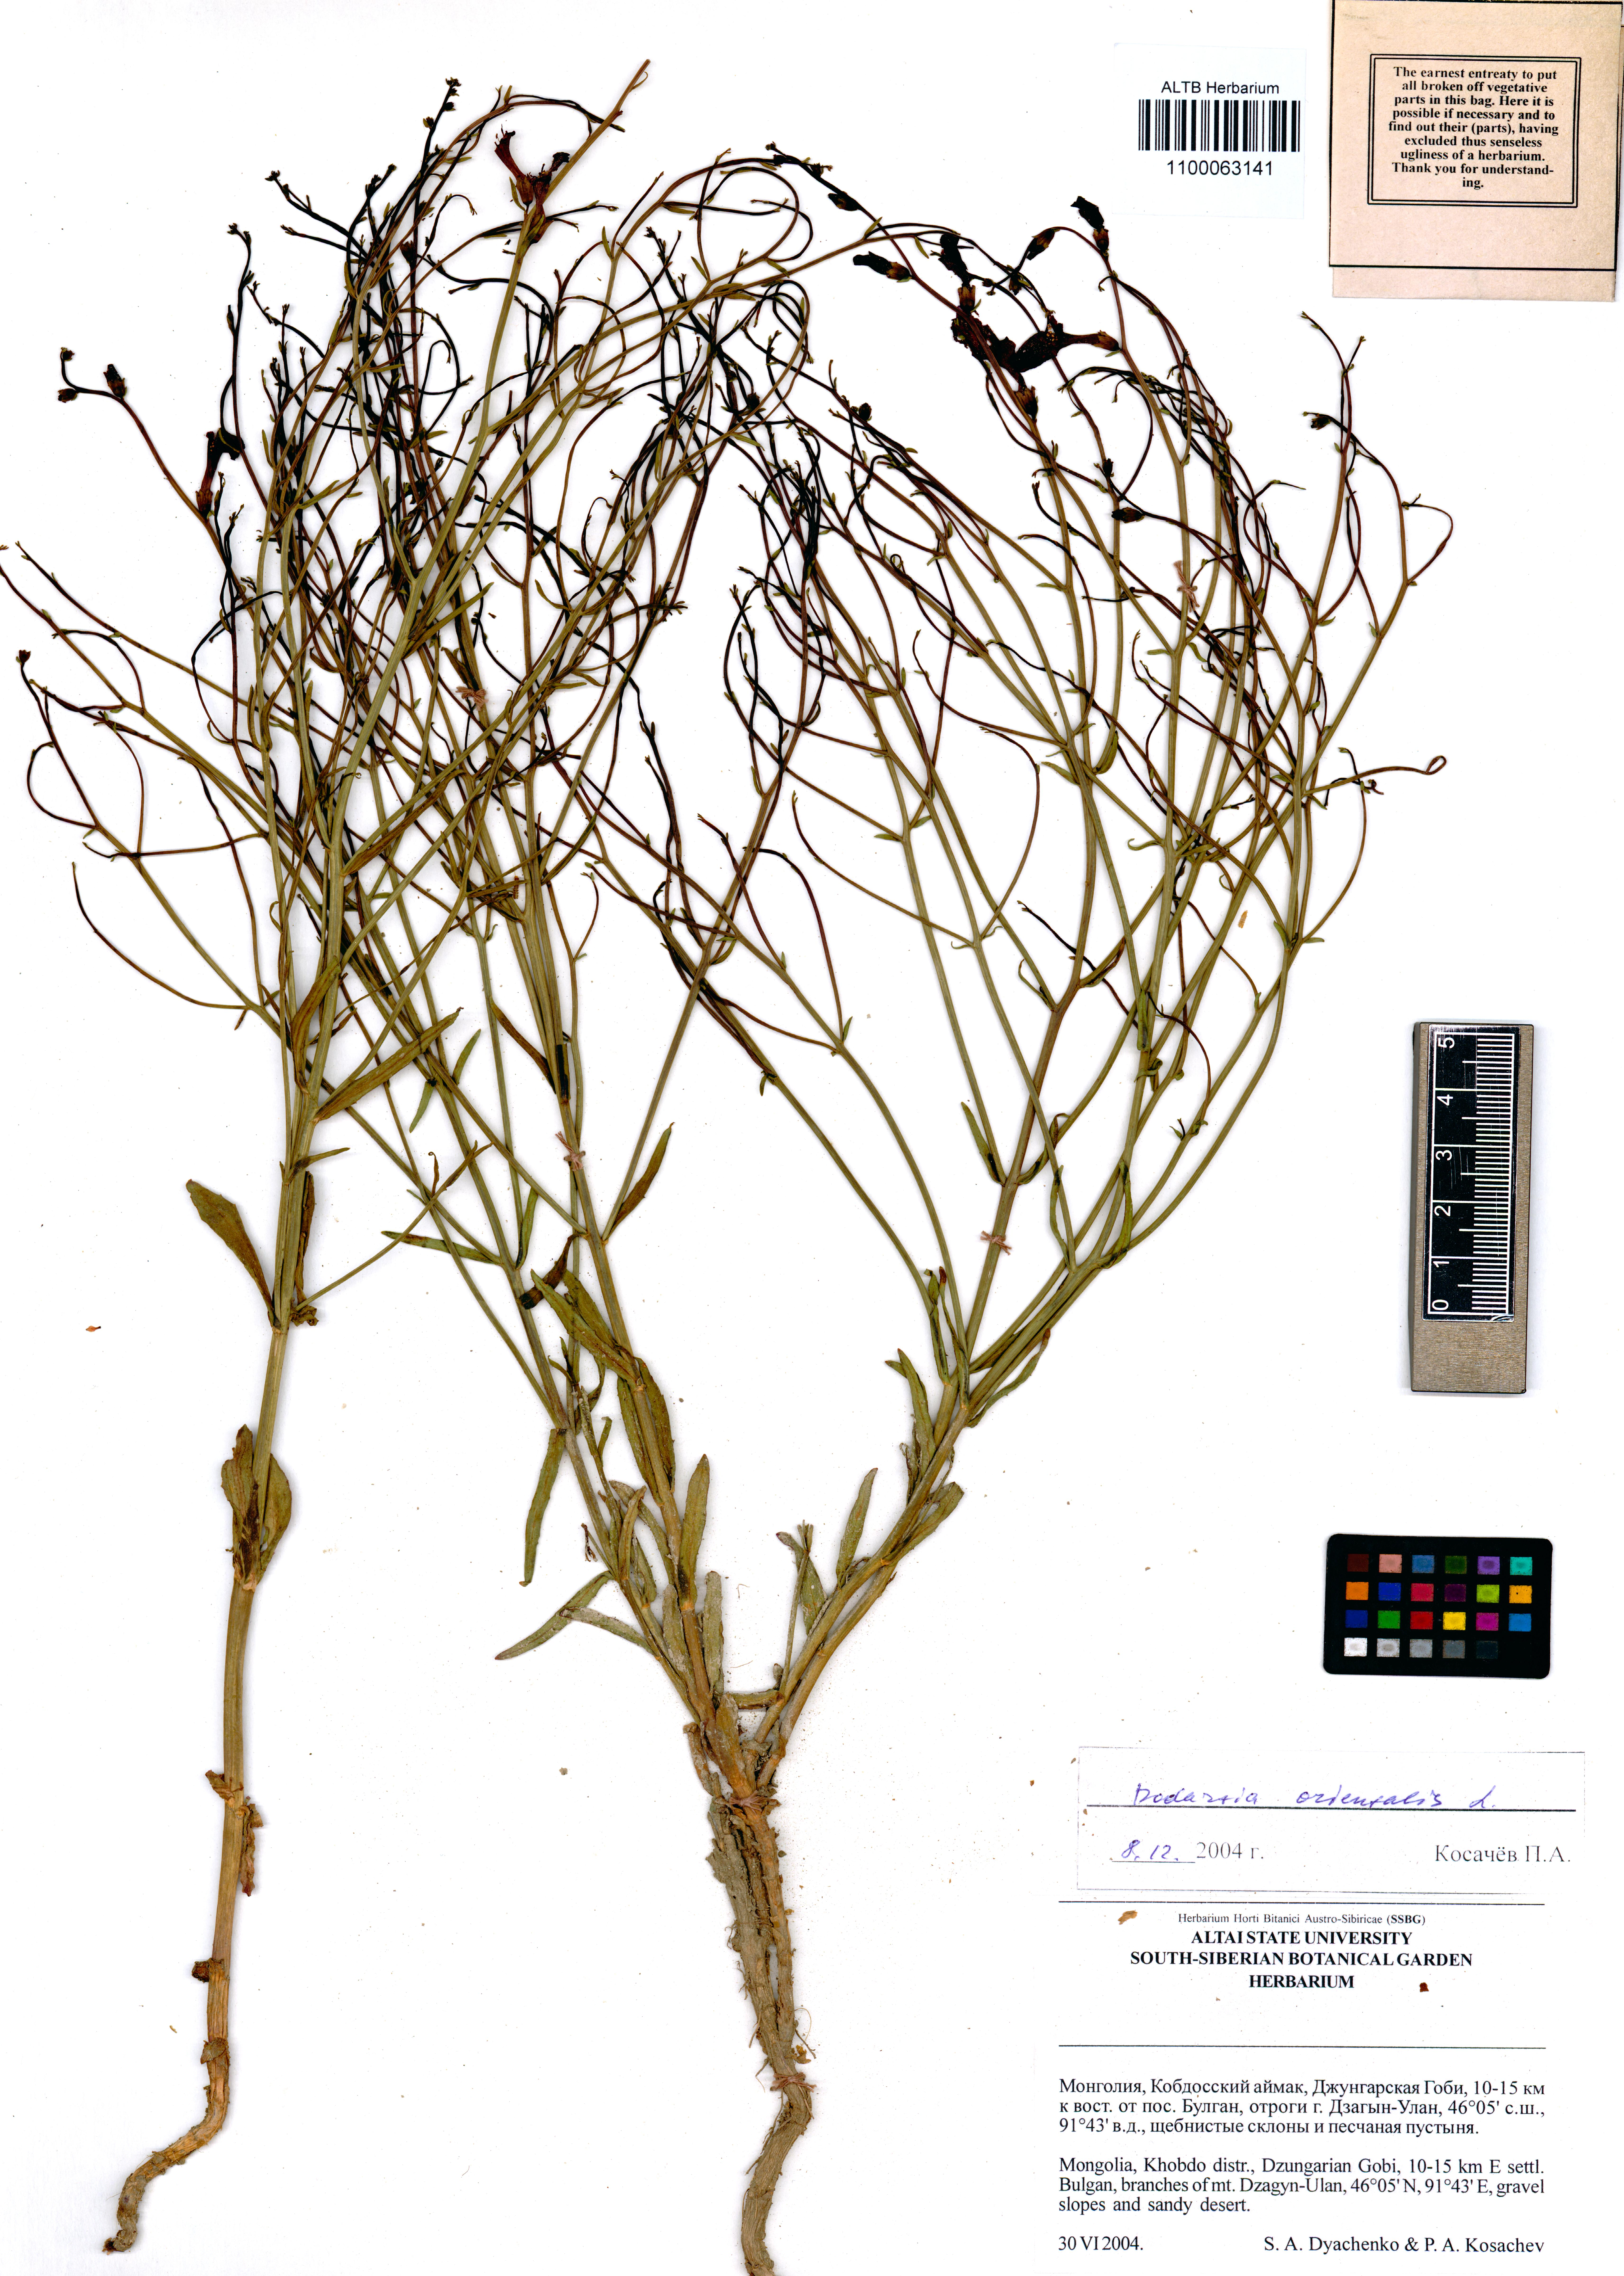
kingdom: Plantae
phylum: Tracheophyta
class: Magnoliopsida
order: Lamiales
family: Mazaceae
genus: Dodartia
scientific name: Dodartia orientalis
